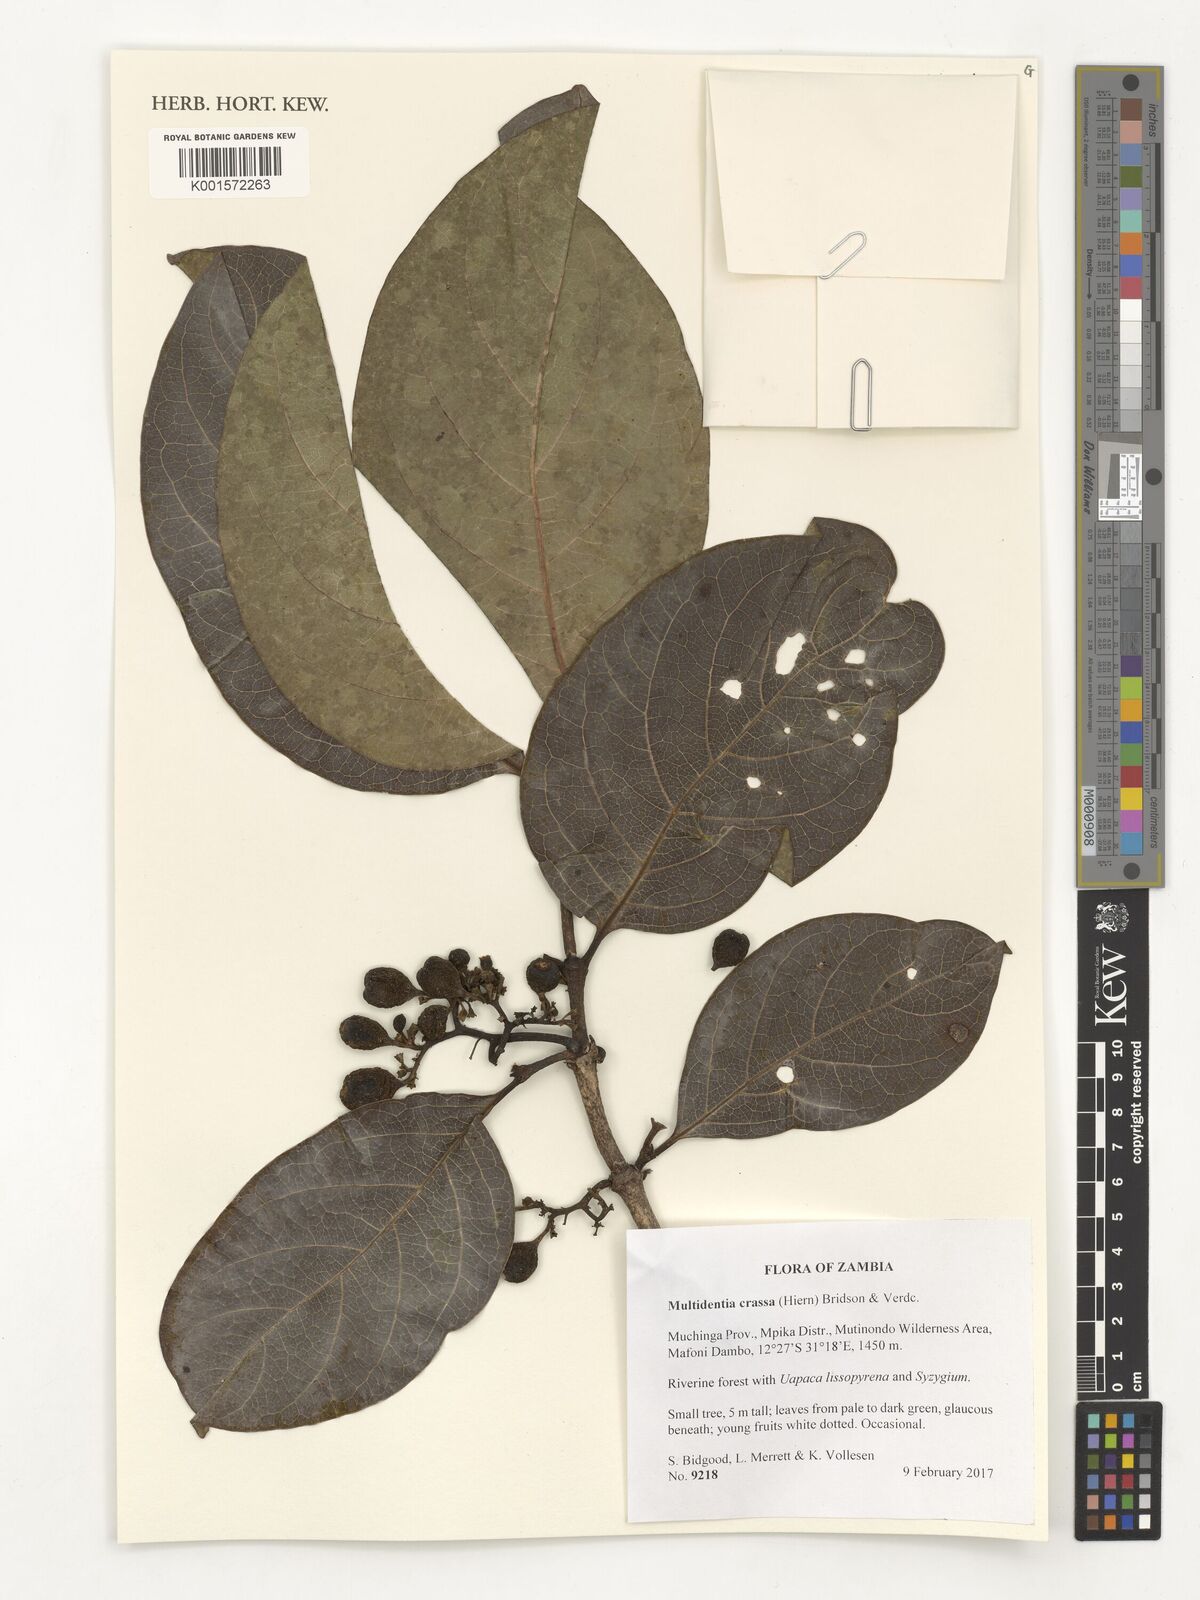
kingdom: Plantae
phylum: Tracheophyta
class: Magnoliopsida
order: Gentianales
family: Rubiaceae
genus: Multidentia
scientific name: Multidentia crassa
